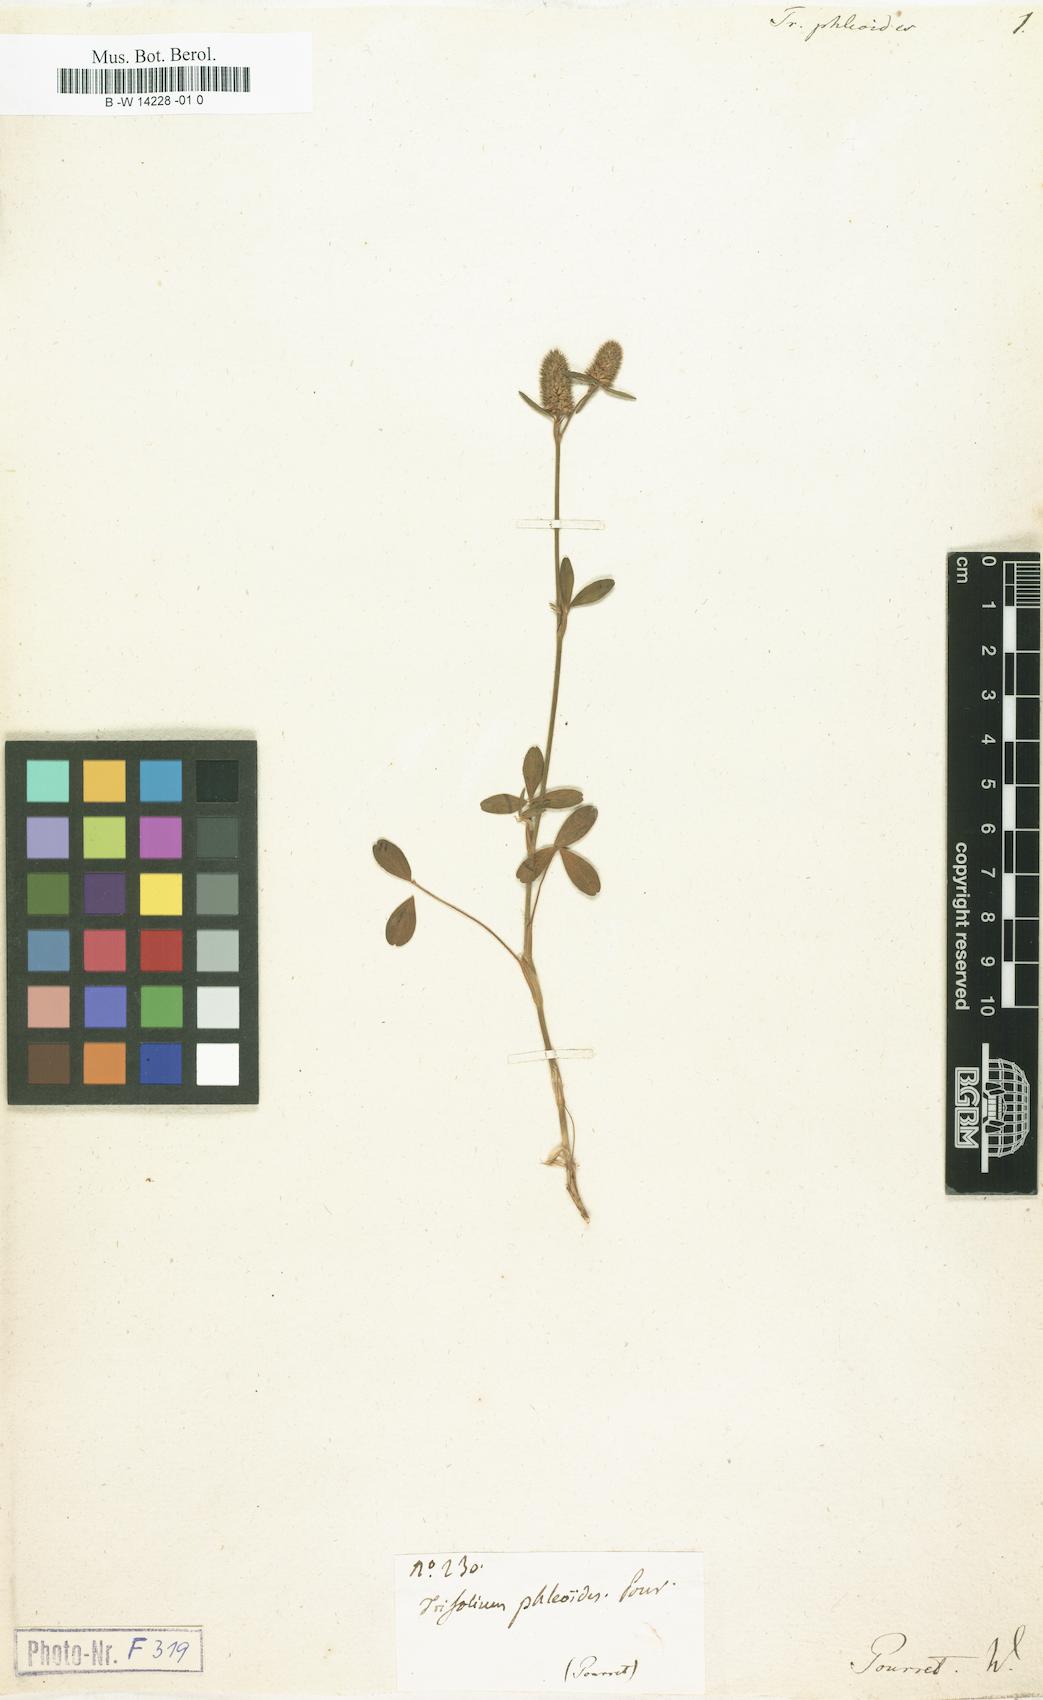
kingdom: Plantae
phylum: Tracheophyta
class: Magnoliopsida
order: Fabales
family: Fabaceae
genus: Trifolium
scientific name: Trifolium phleoides
